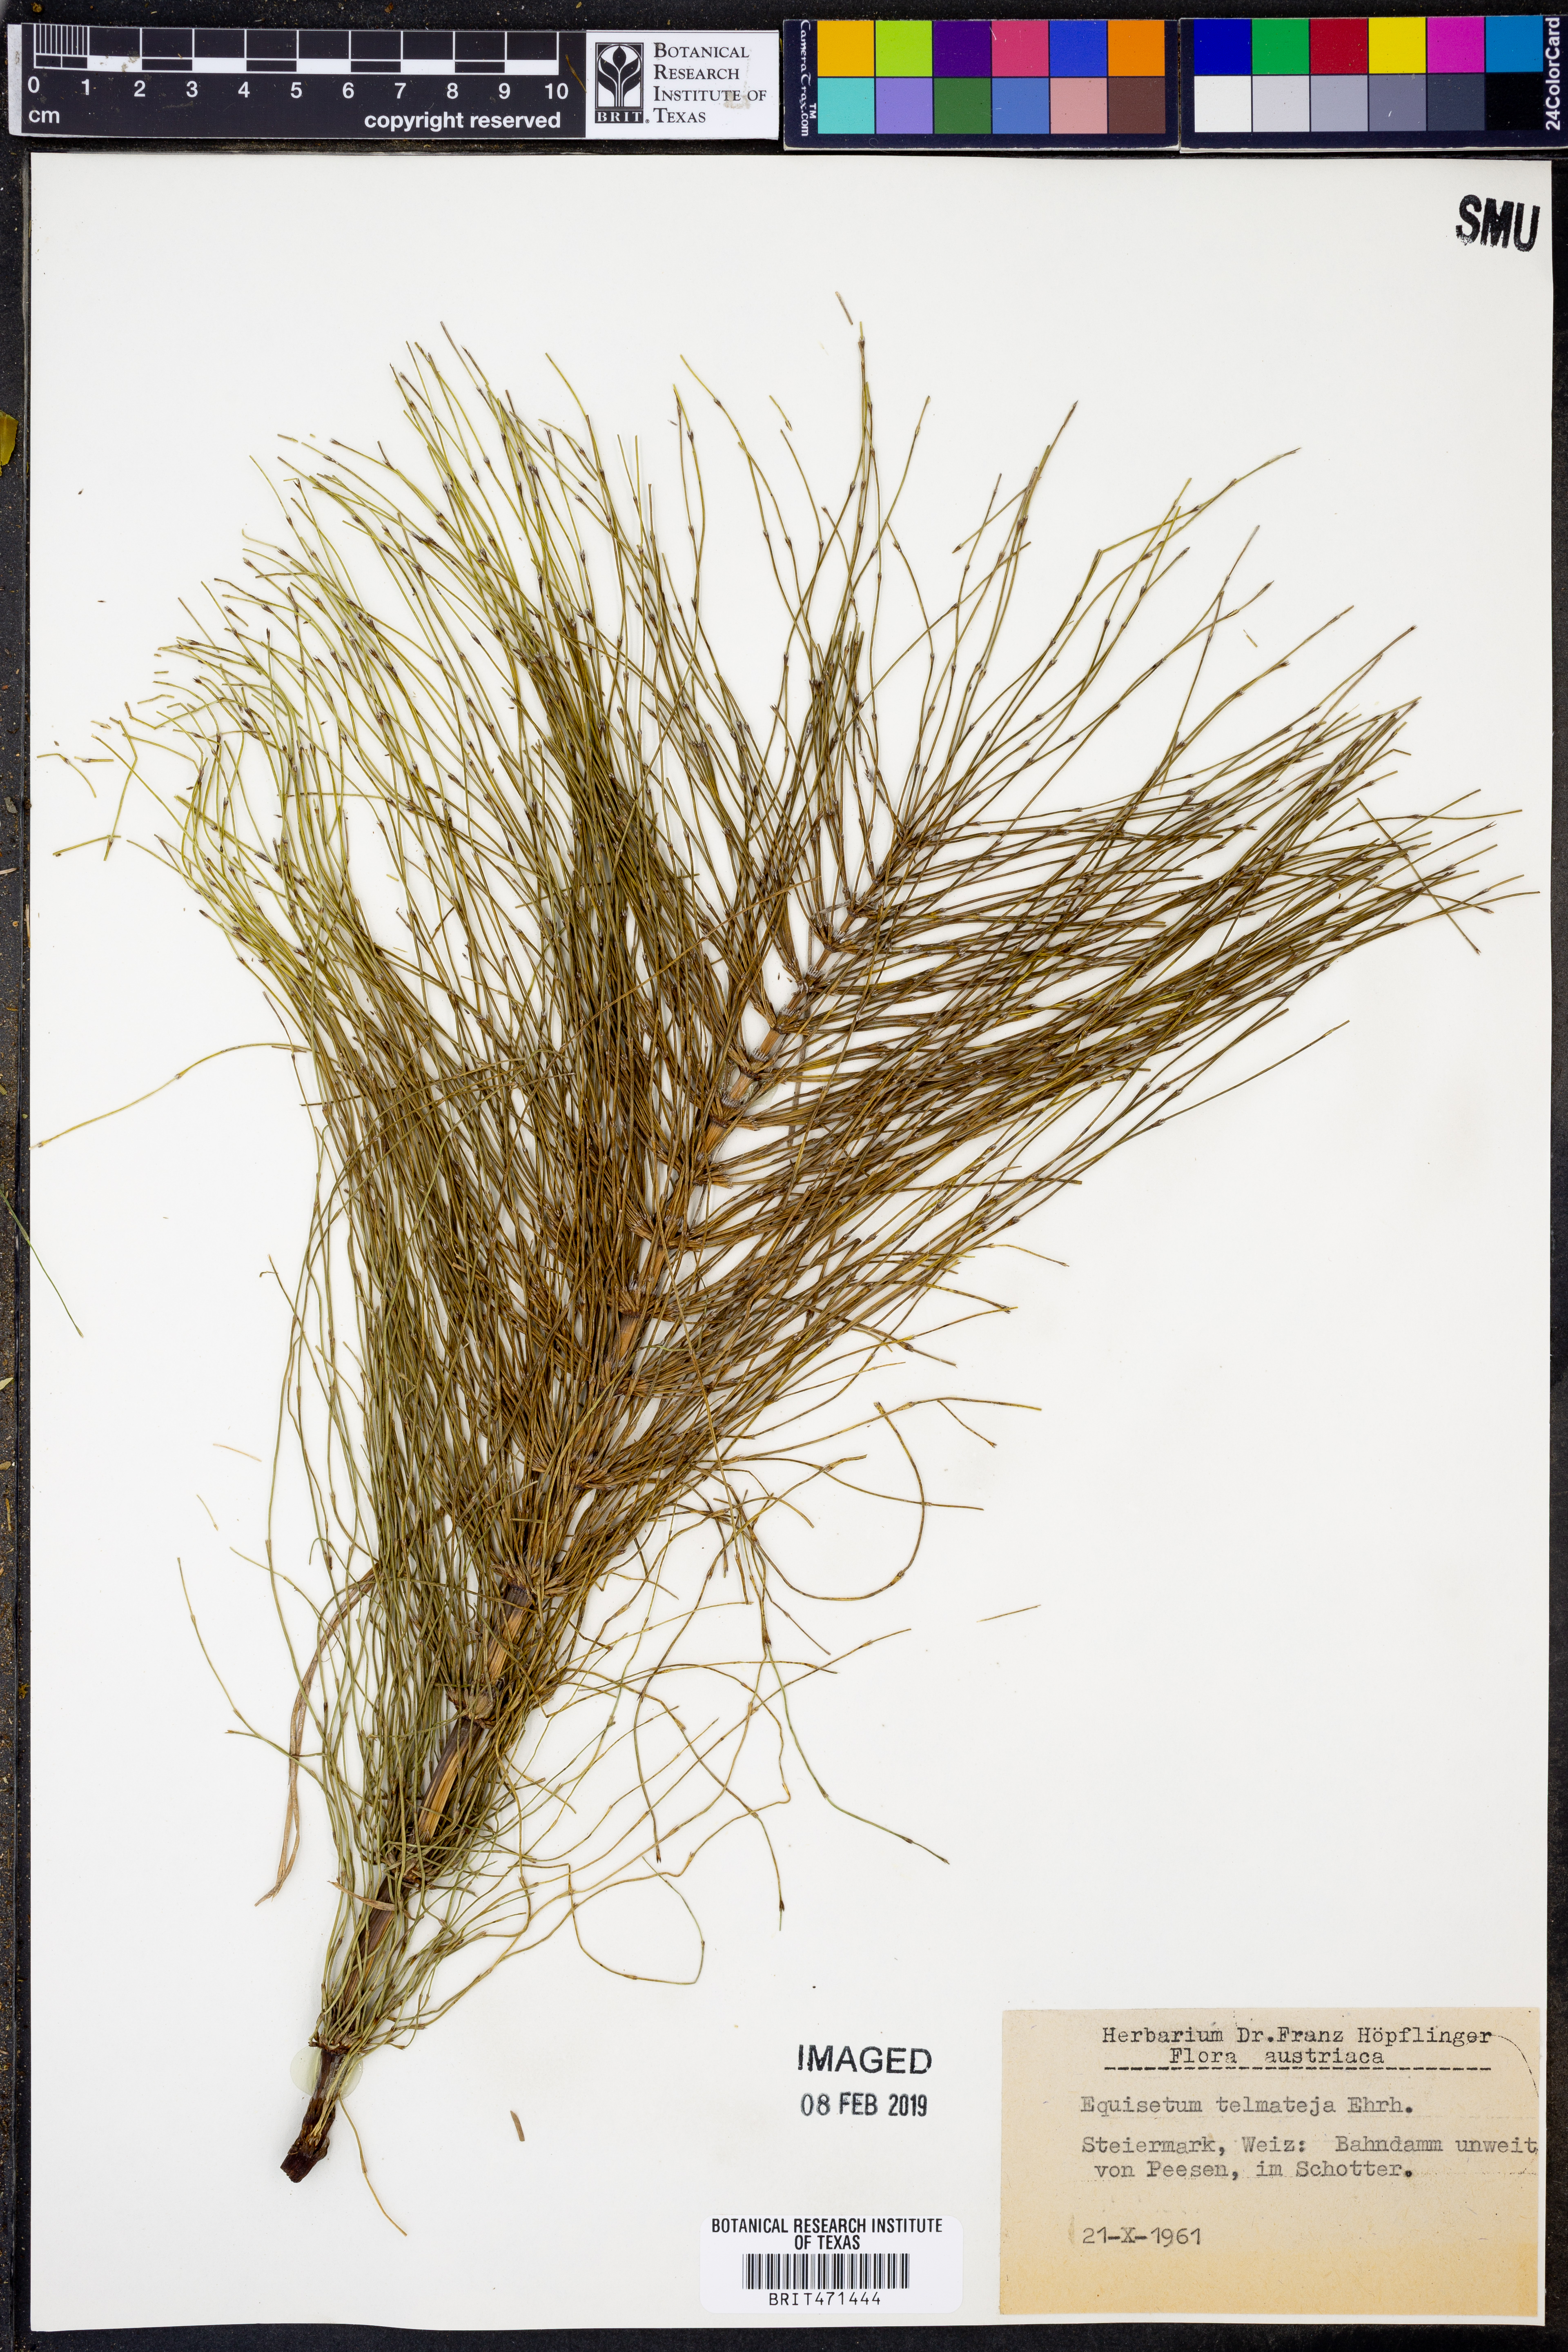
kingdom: Plantae
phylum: Tracheophyta
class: Polypodiopsida
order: Equisetales
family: Equisetaceae
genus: Equisetum
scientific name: Equisetum telmateia
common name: Great horsetail
